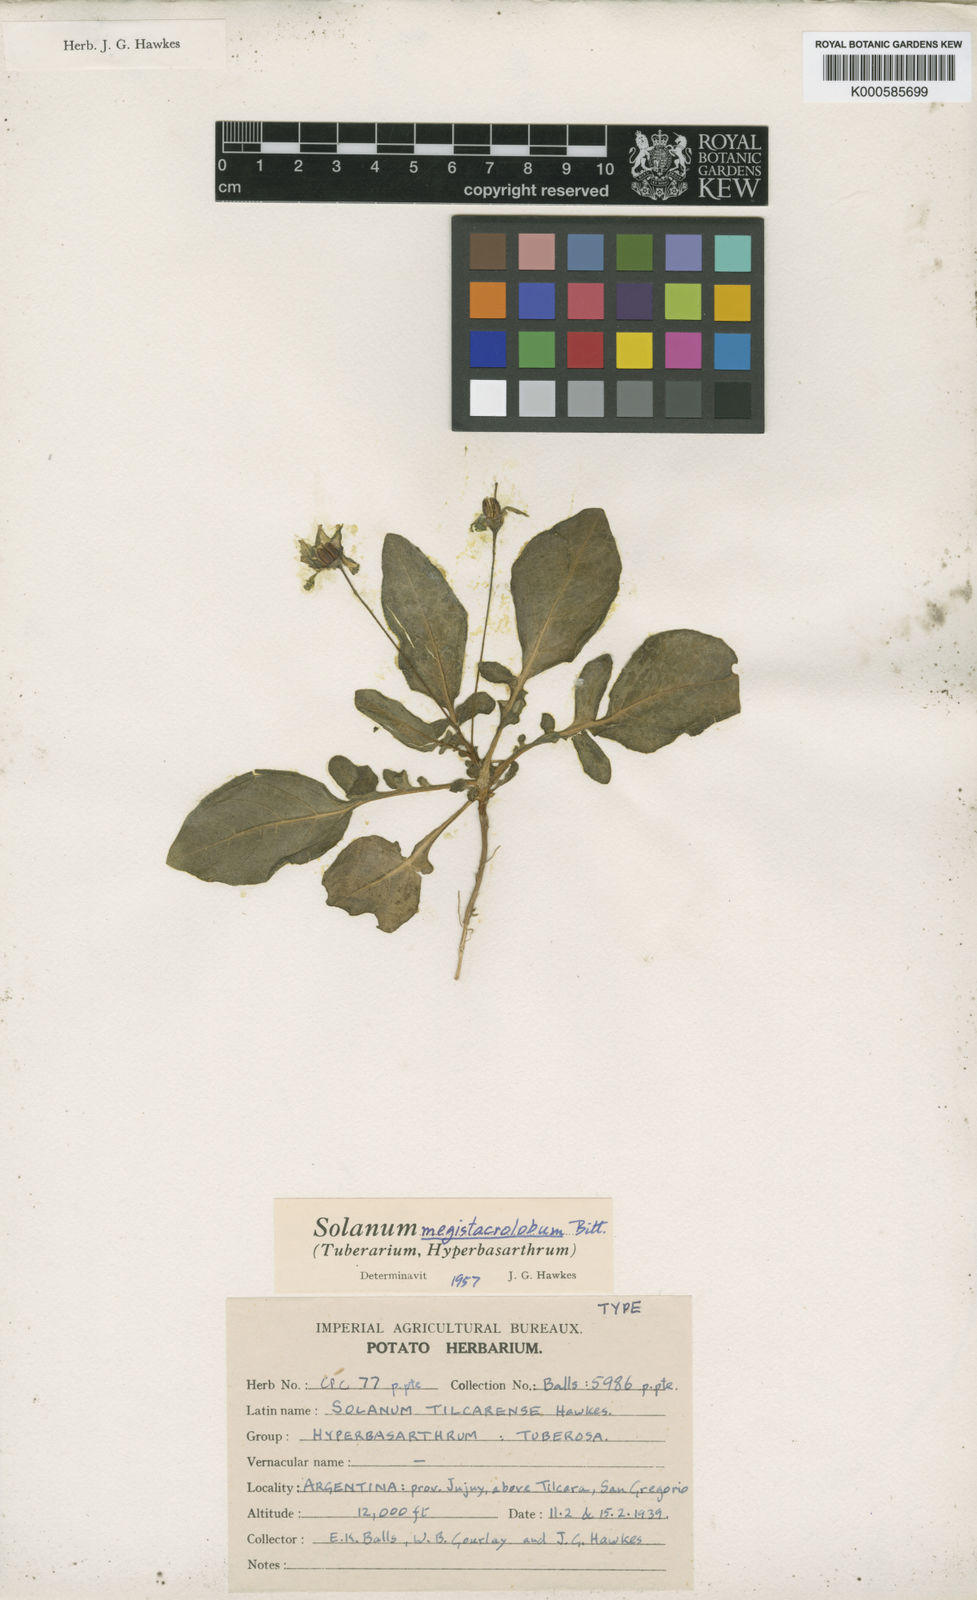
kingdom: Plantae
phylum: Tracheophyta
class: Magnoliopsida
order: Solanales
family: Solanaceae
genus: Solanum
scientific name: Solanum boliviense
